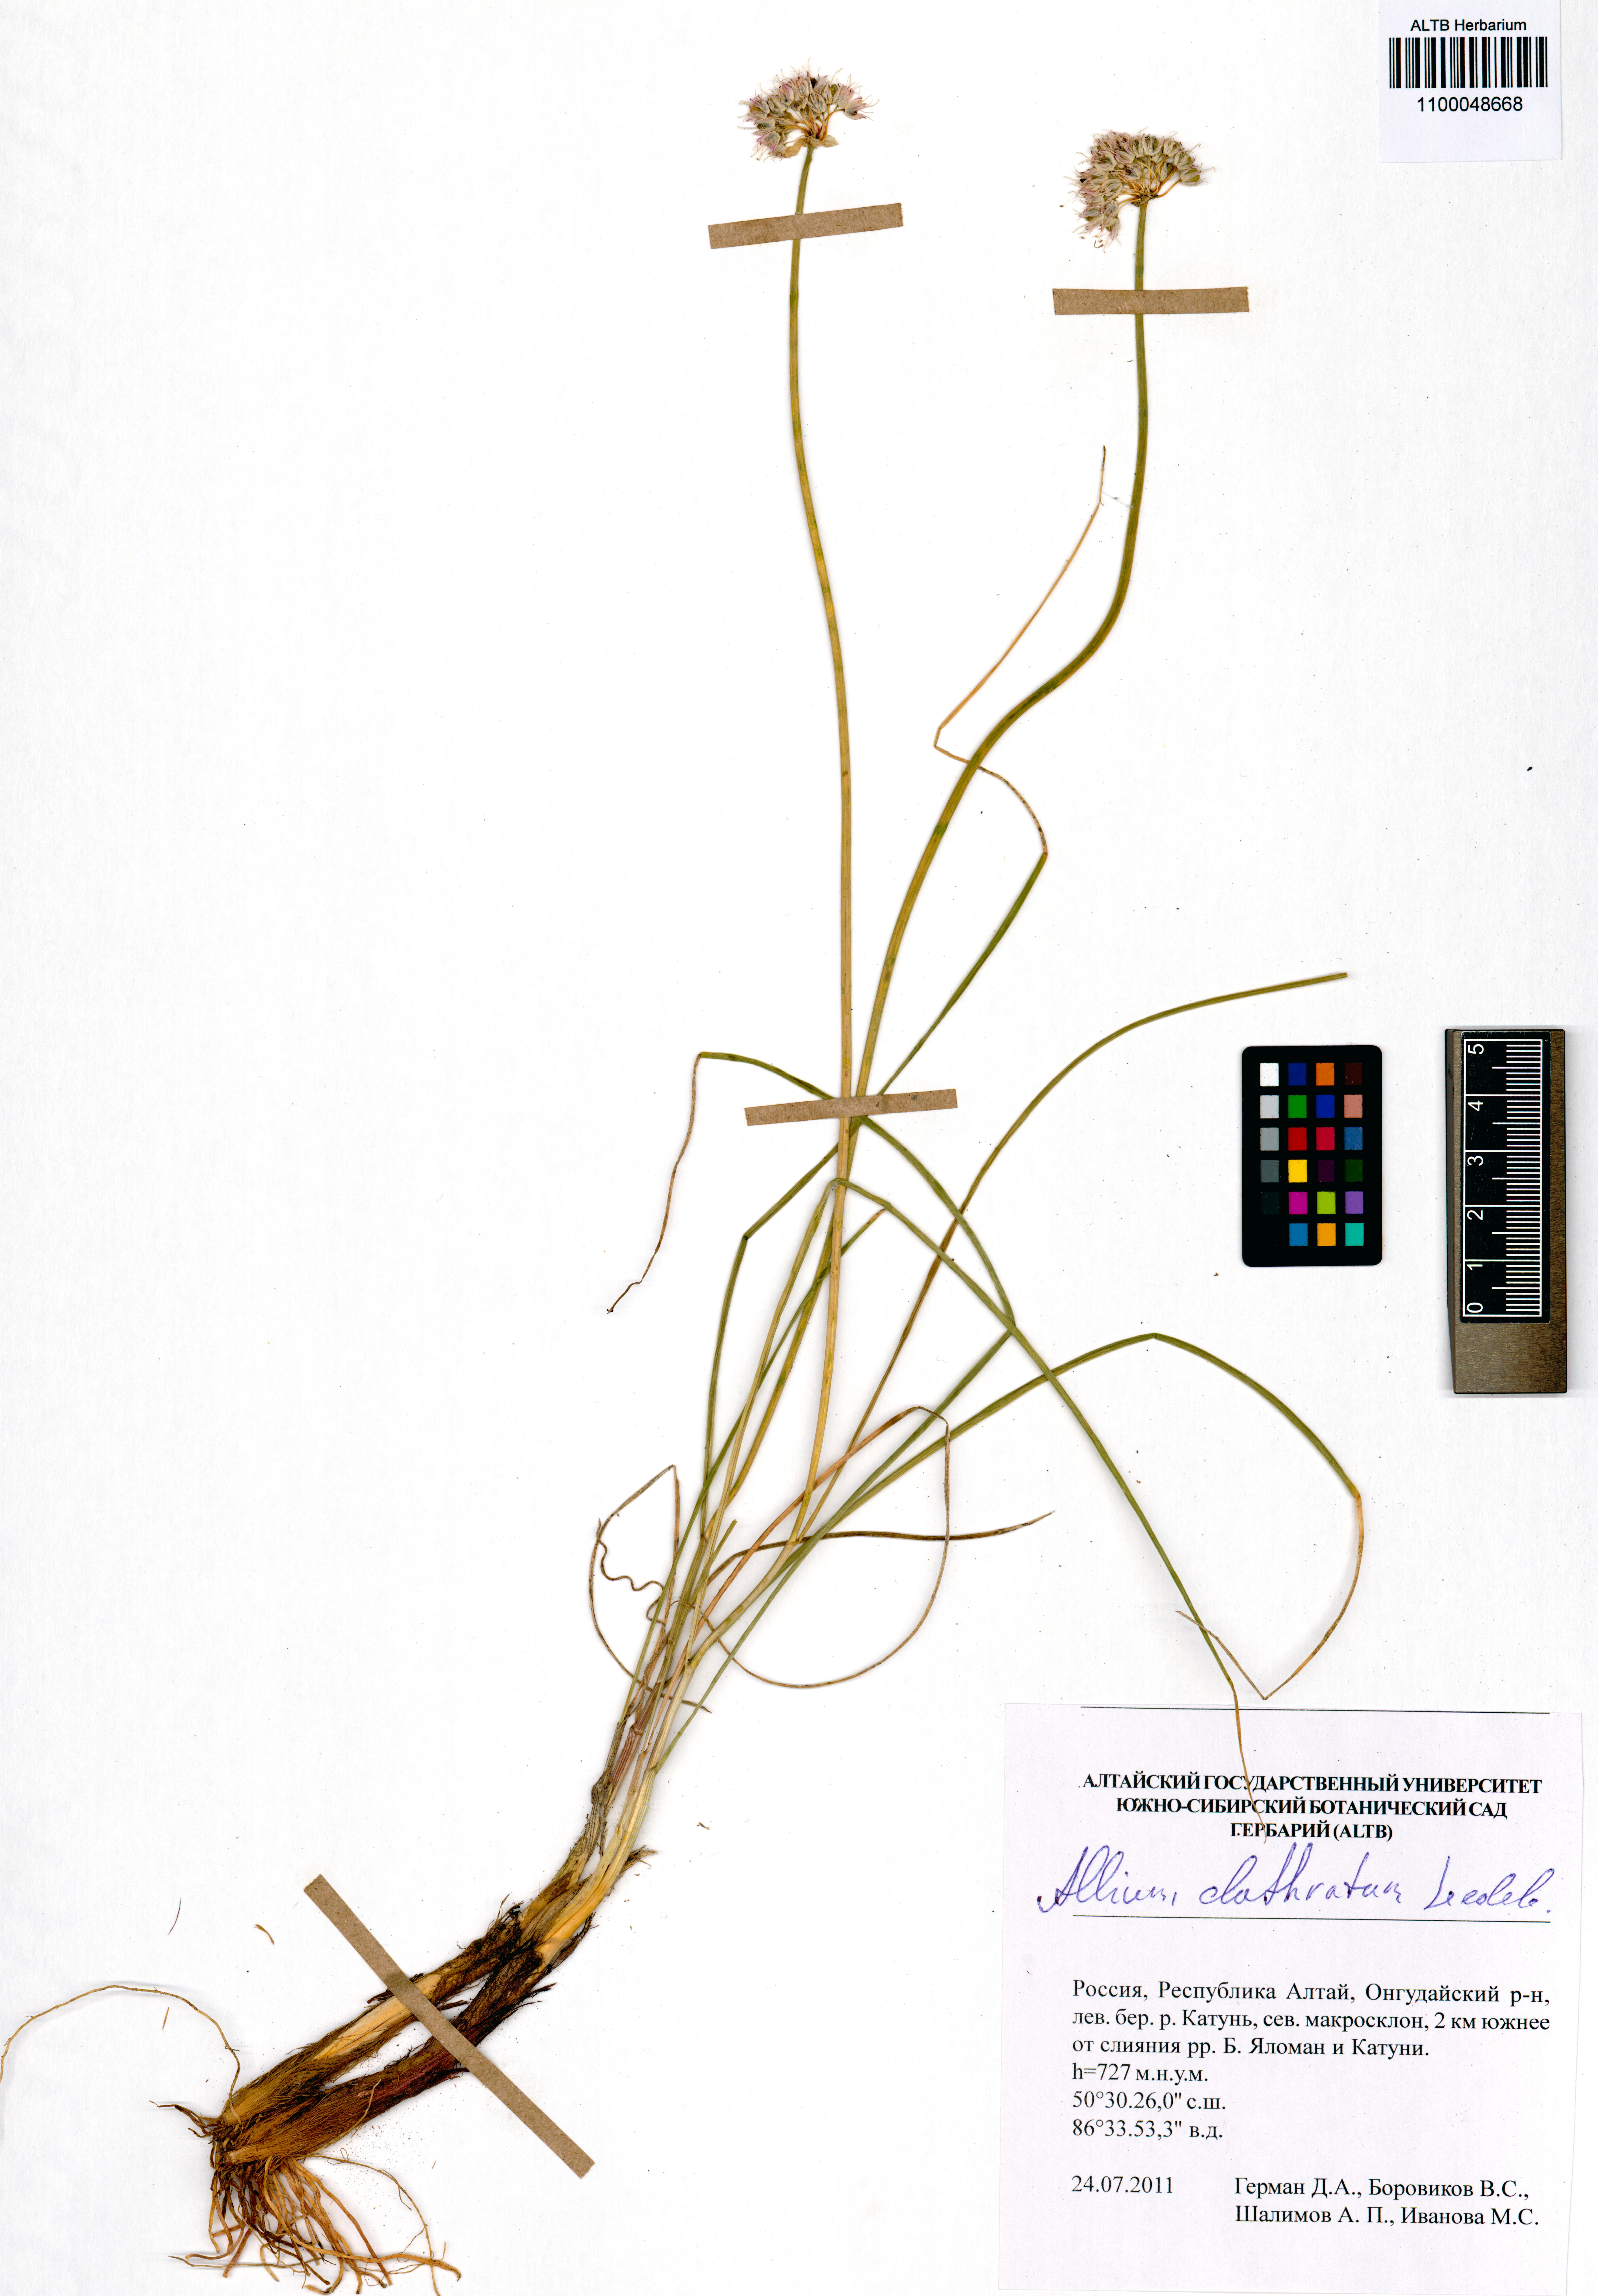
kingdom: Plantae
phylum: Tracheophyta
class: Liliopsida
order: Asparagales
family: Amaryllidaceae
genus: Allium
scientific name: Allium clathratum
